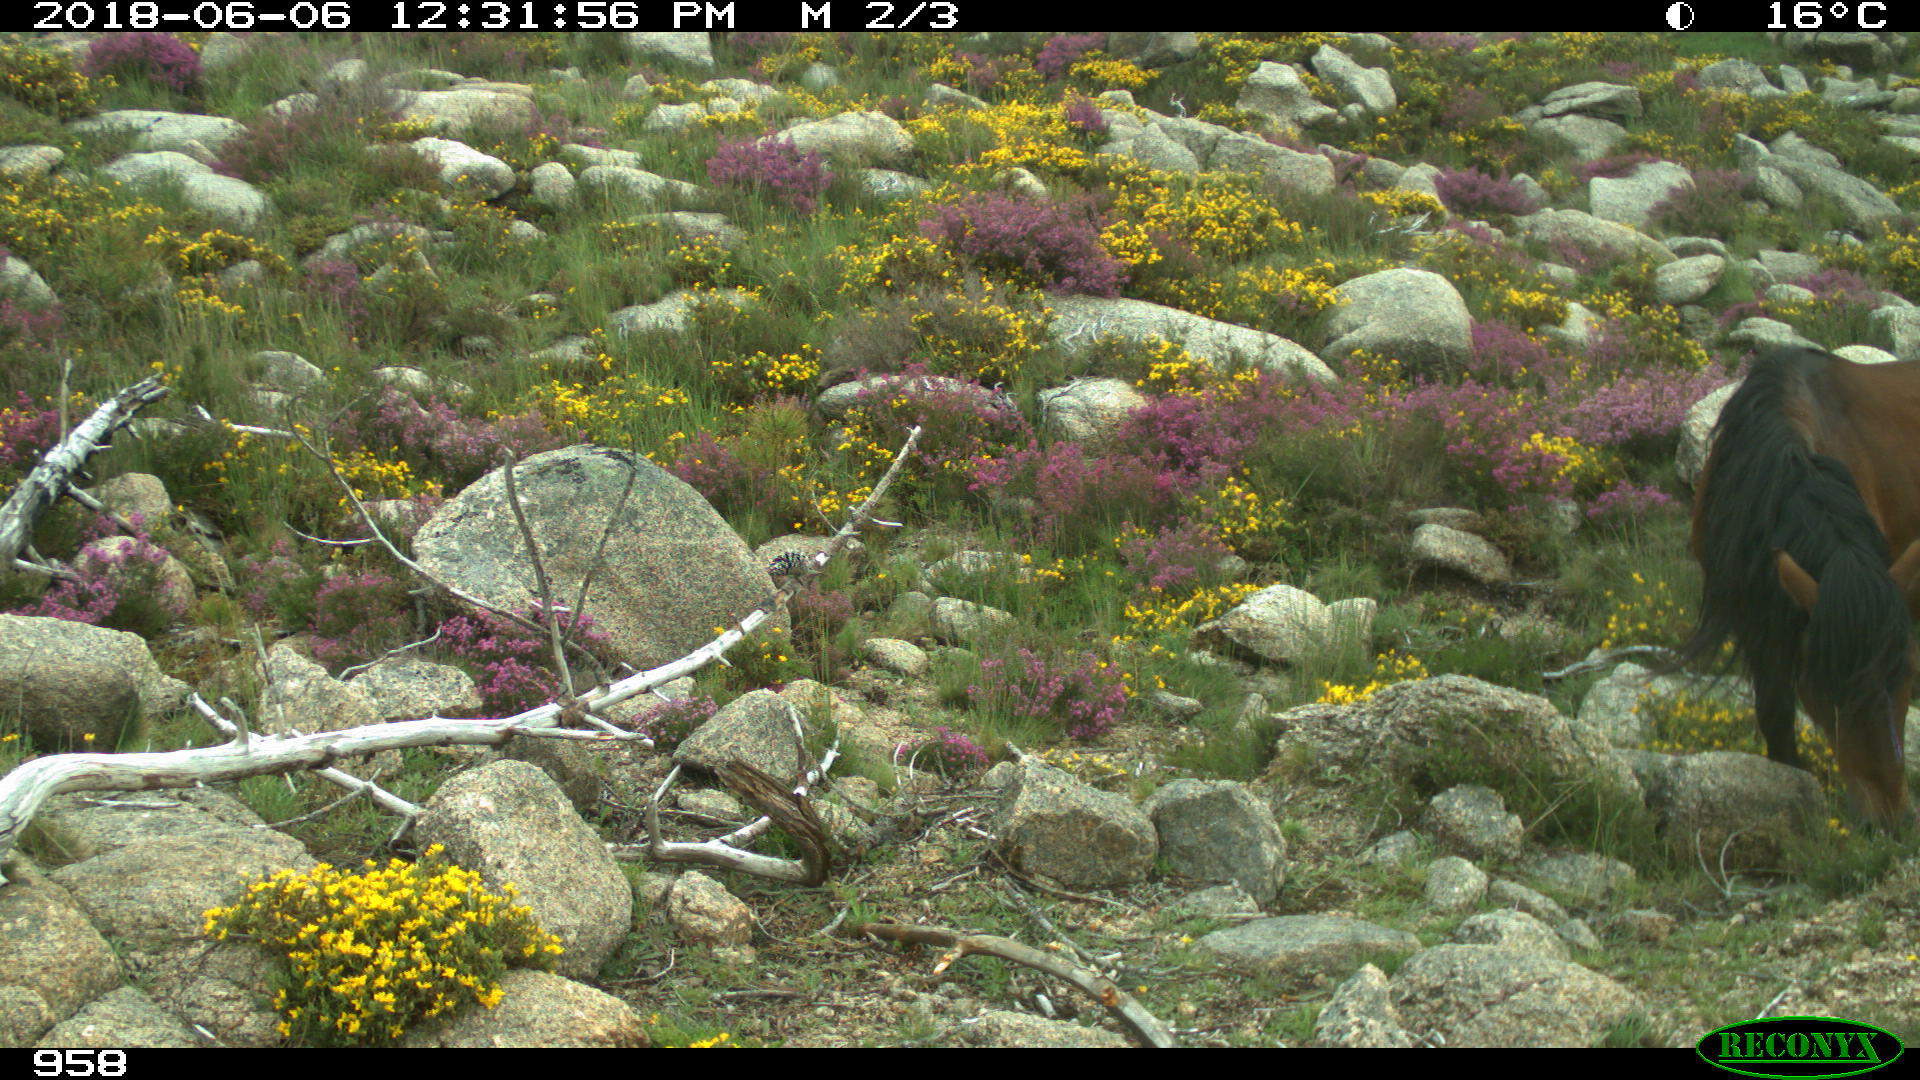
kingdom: Animalia
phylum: Chordata
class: Mammalia
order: Perissodactyla
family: Equidae
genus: Equus
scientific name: Equus caballus
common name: Horse
